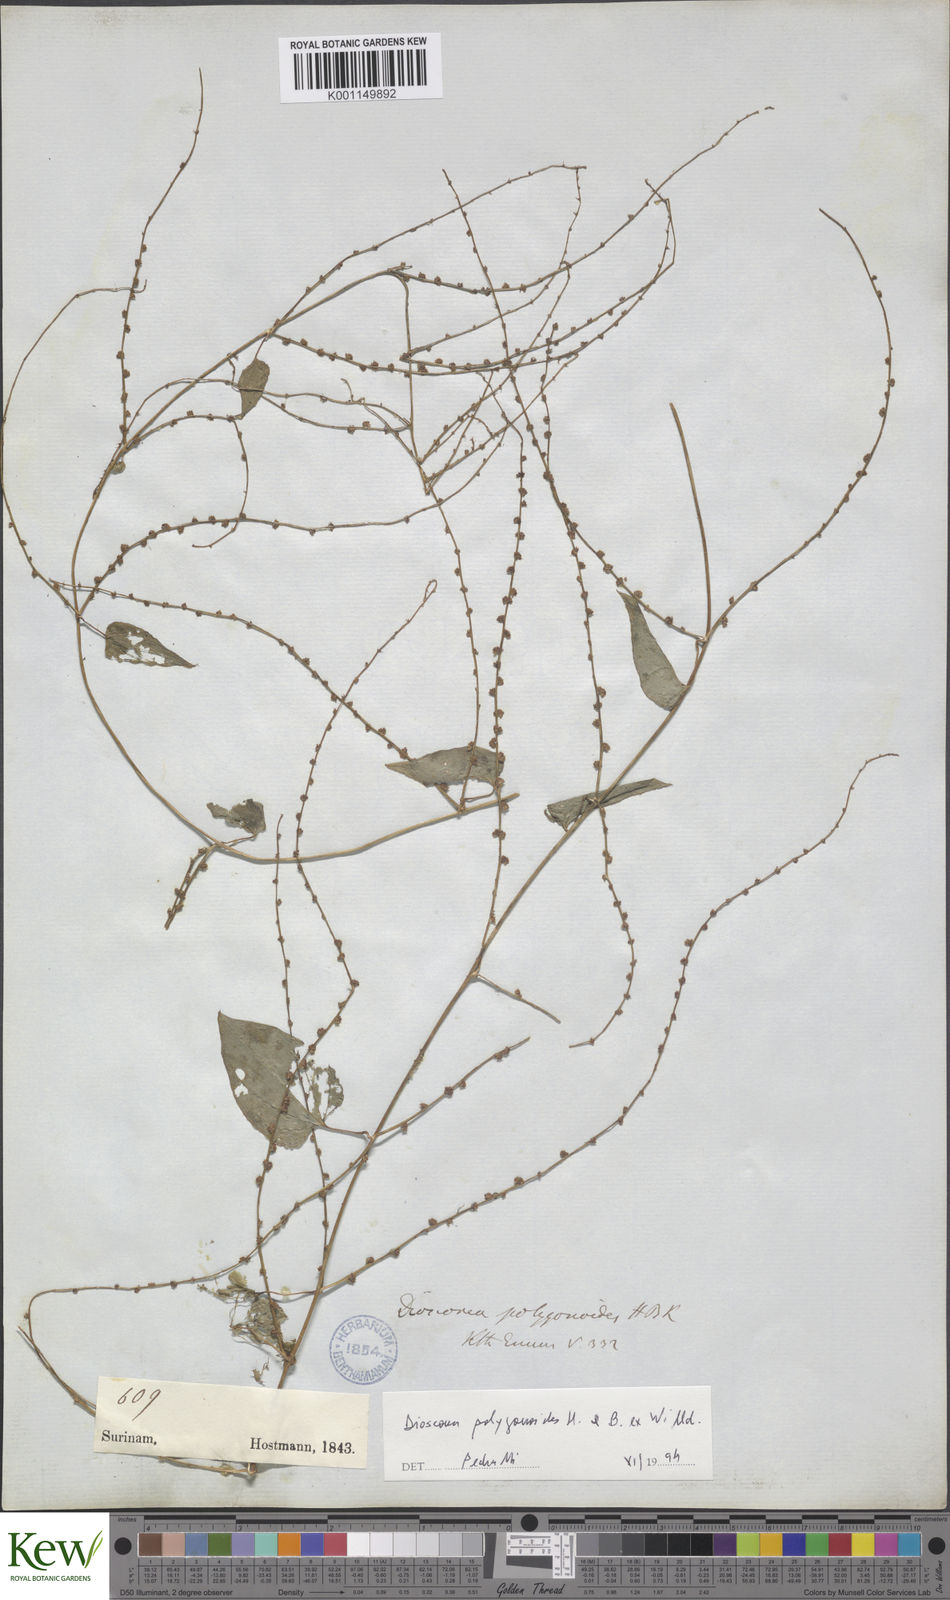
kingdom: Plantae
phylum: Tracheophyta
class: Liliopsida
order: Dioscoreales
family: Dioscoreaceae
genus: Dioscorea
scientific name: Dioscorea polygonoides
